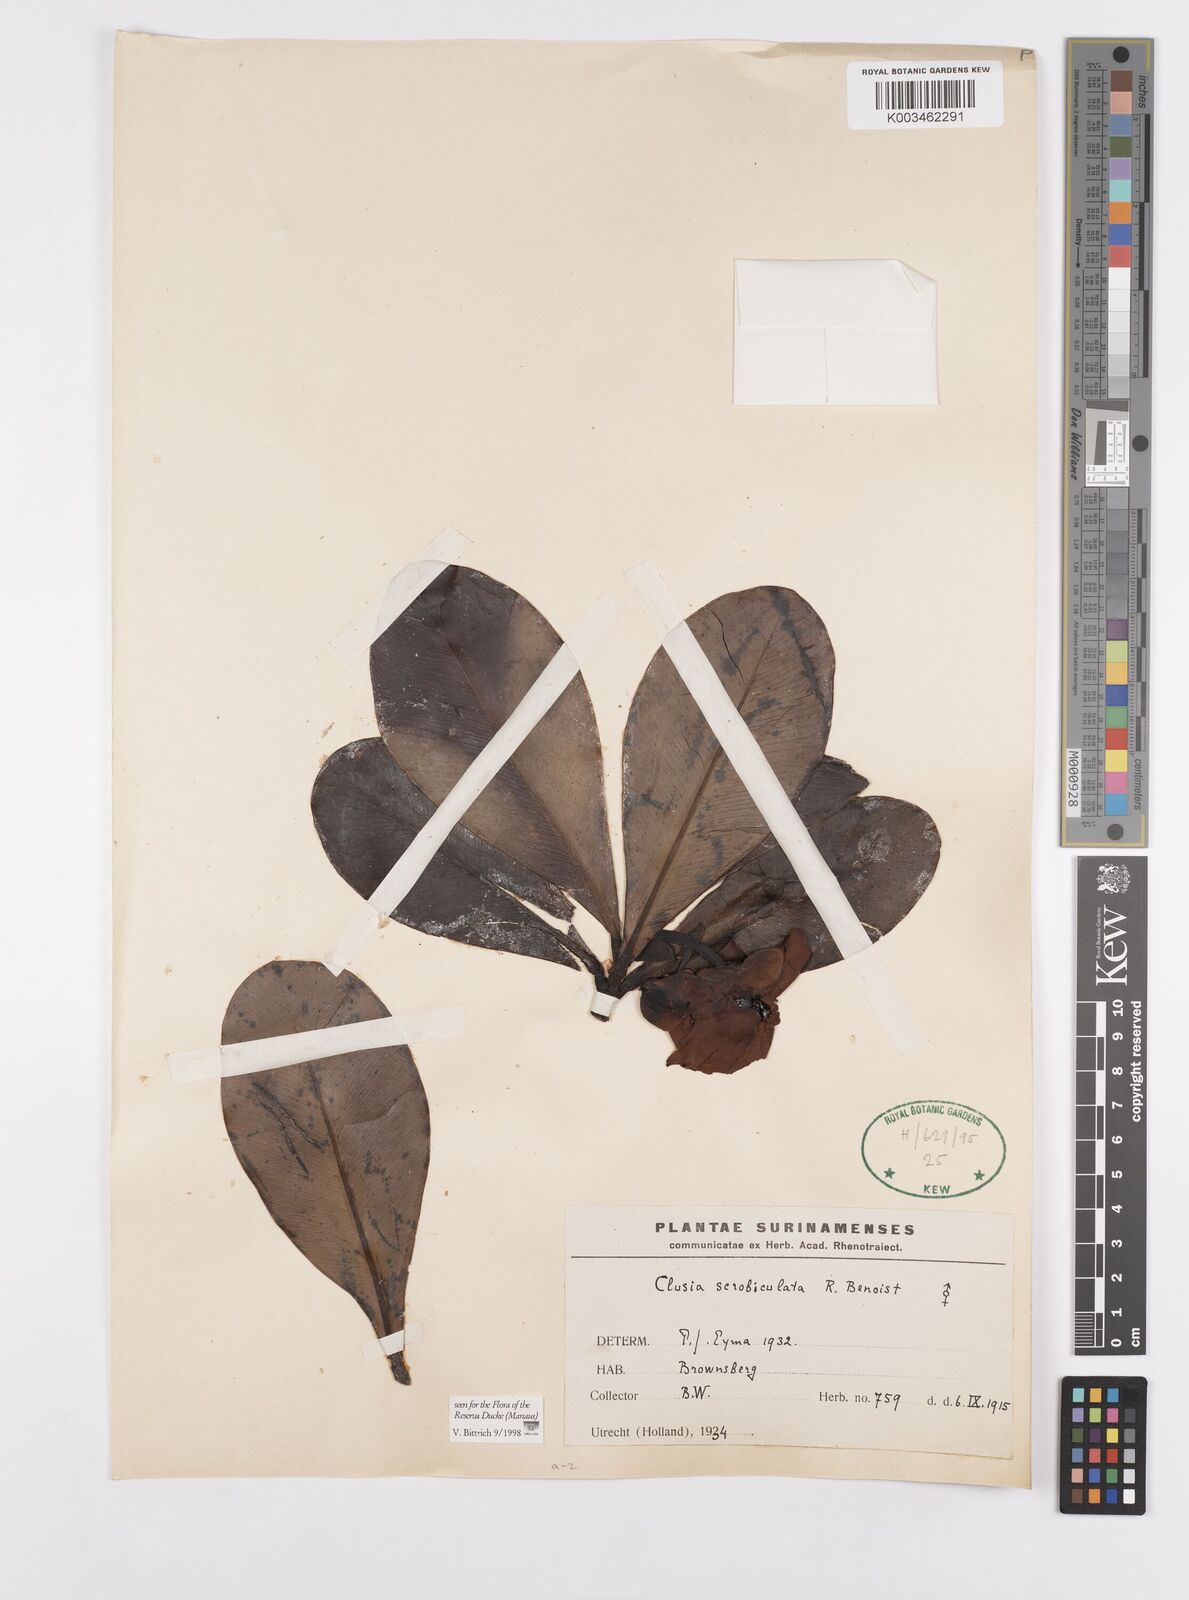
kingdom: Plantae
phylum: Tracheophyta
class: Magnoliopsida
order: Malpighiales
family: Clusiaceae
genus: Clusia
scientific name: Clusia scrobiculata
